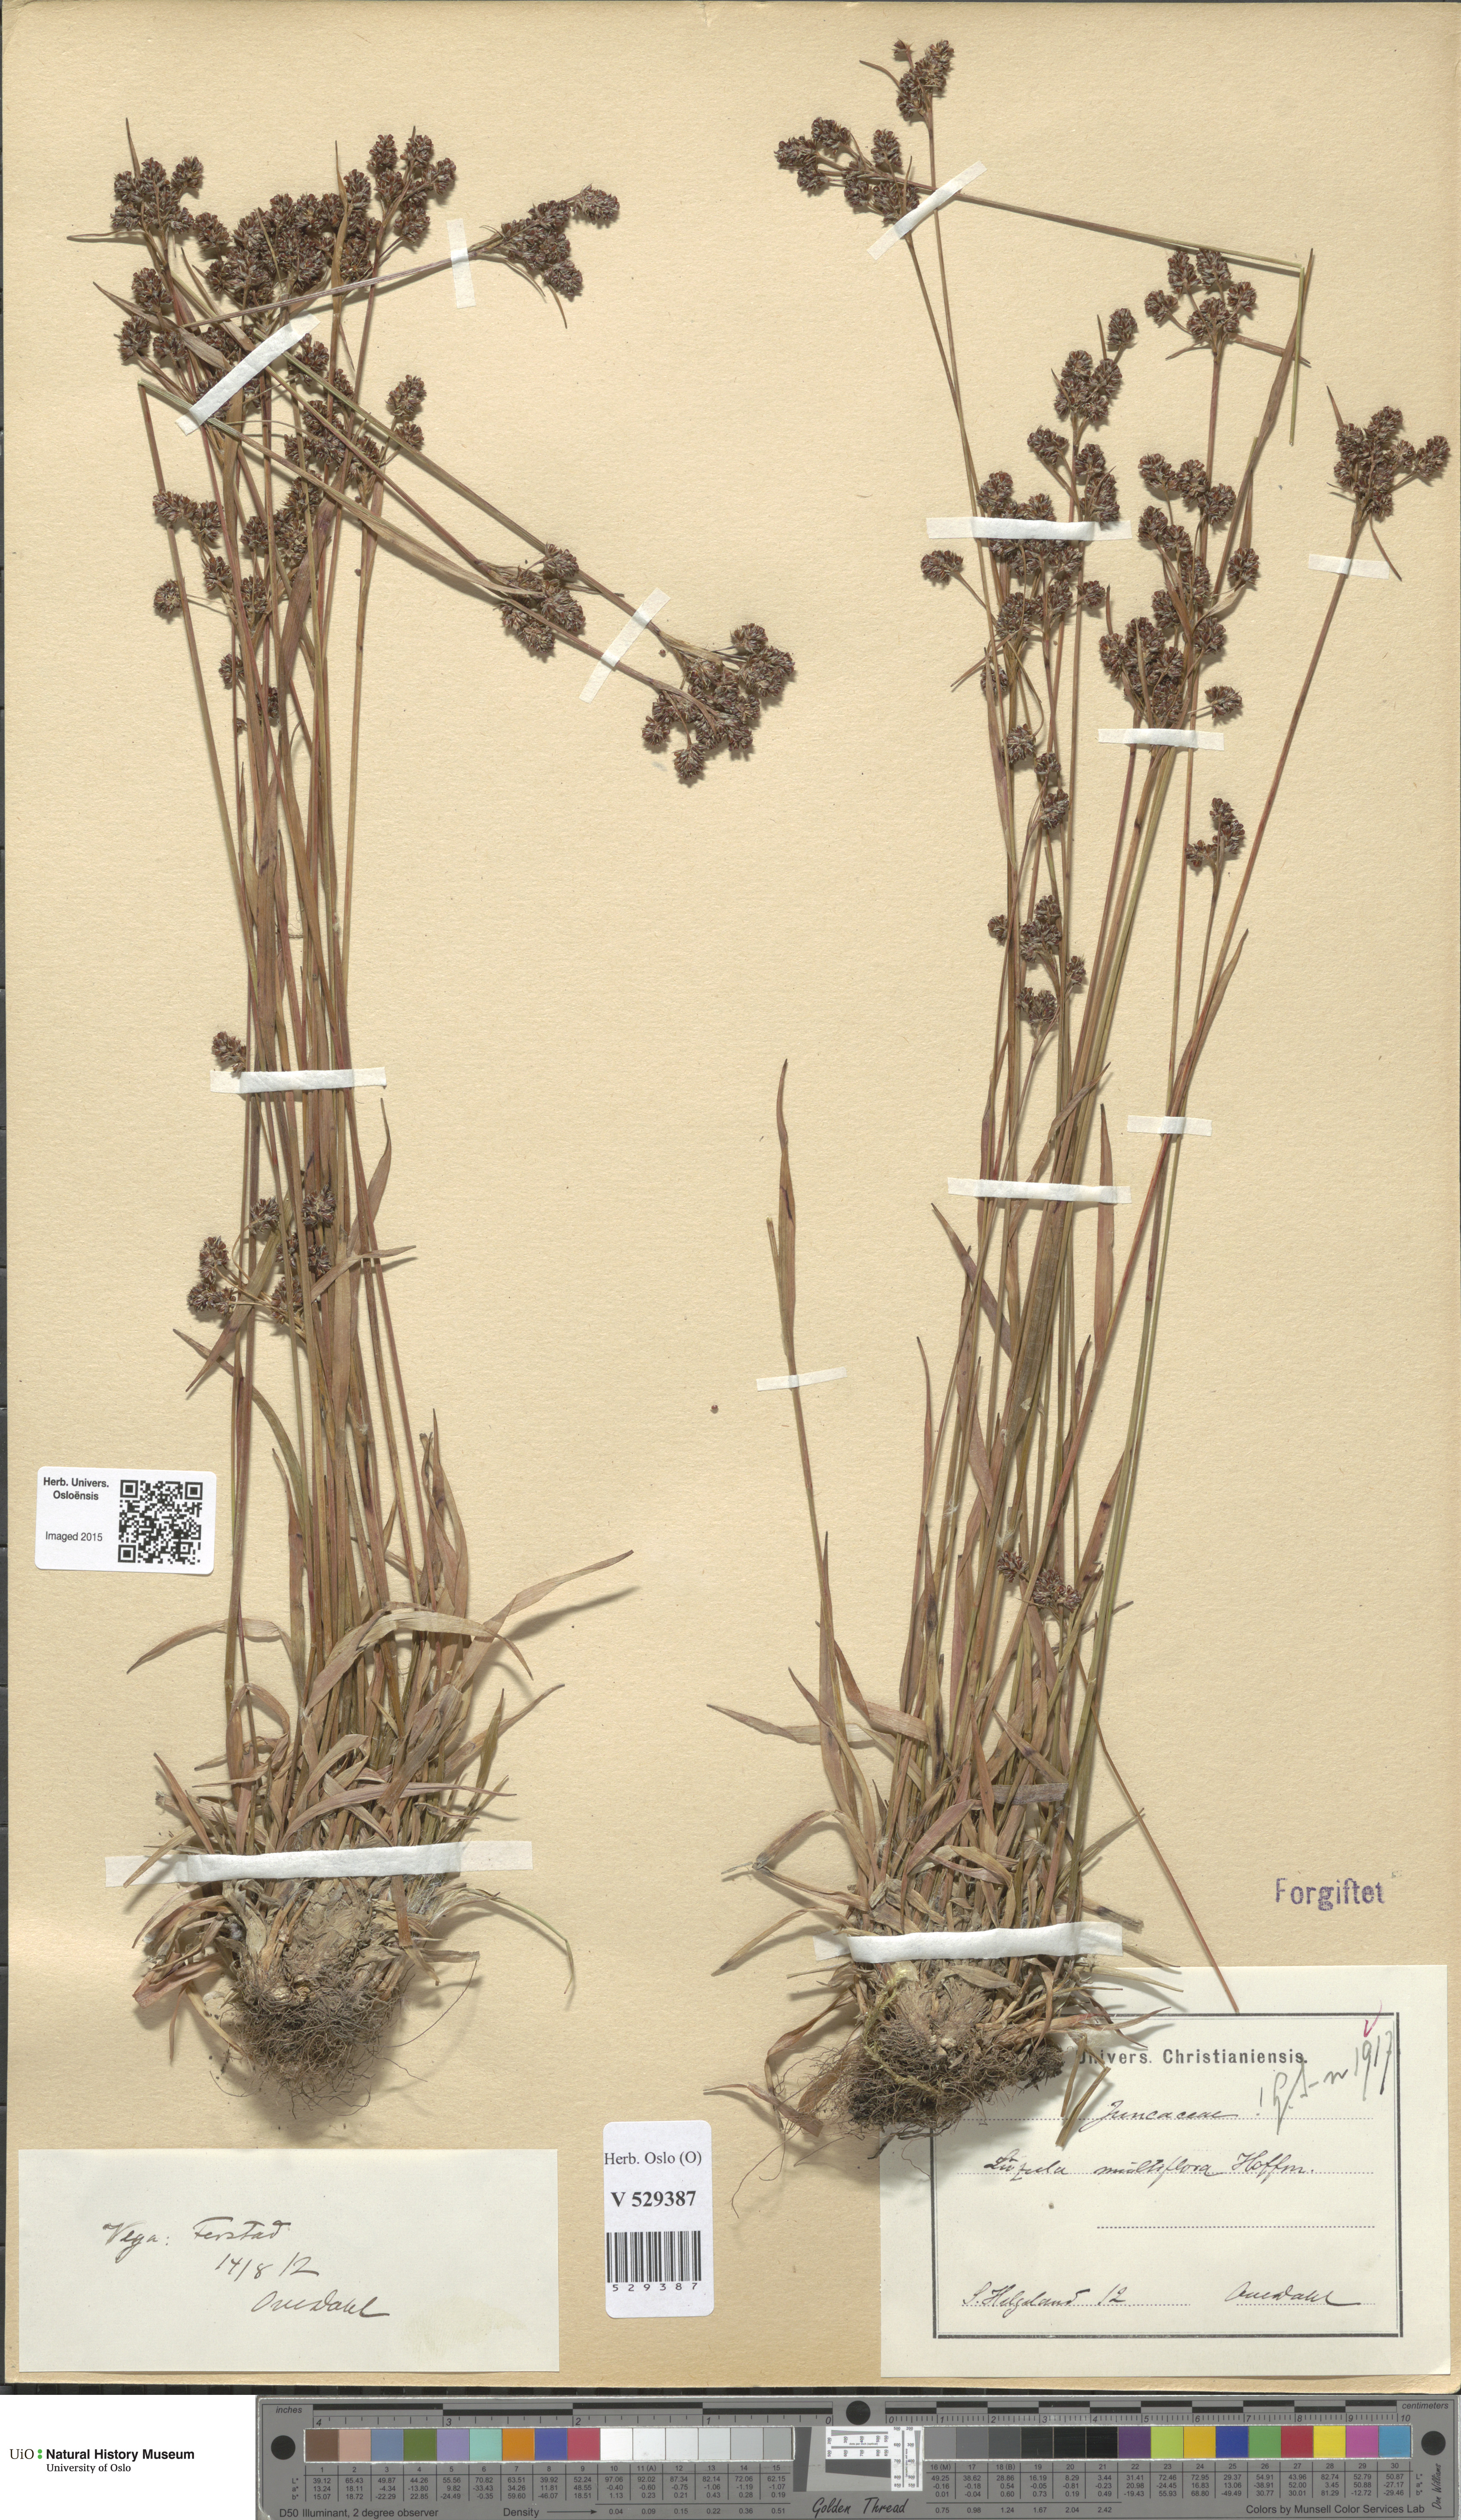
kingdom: Plantae
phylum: Tracheophyta
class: Liliopsida
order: Poales
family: Juncaceae
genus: Luzula
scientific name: Luzula multiflora
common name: Heath wood-rush
